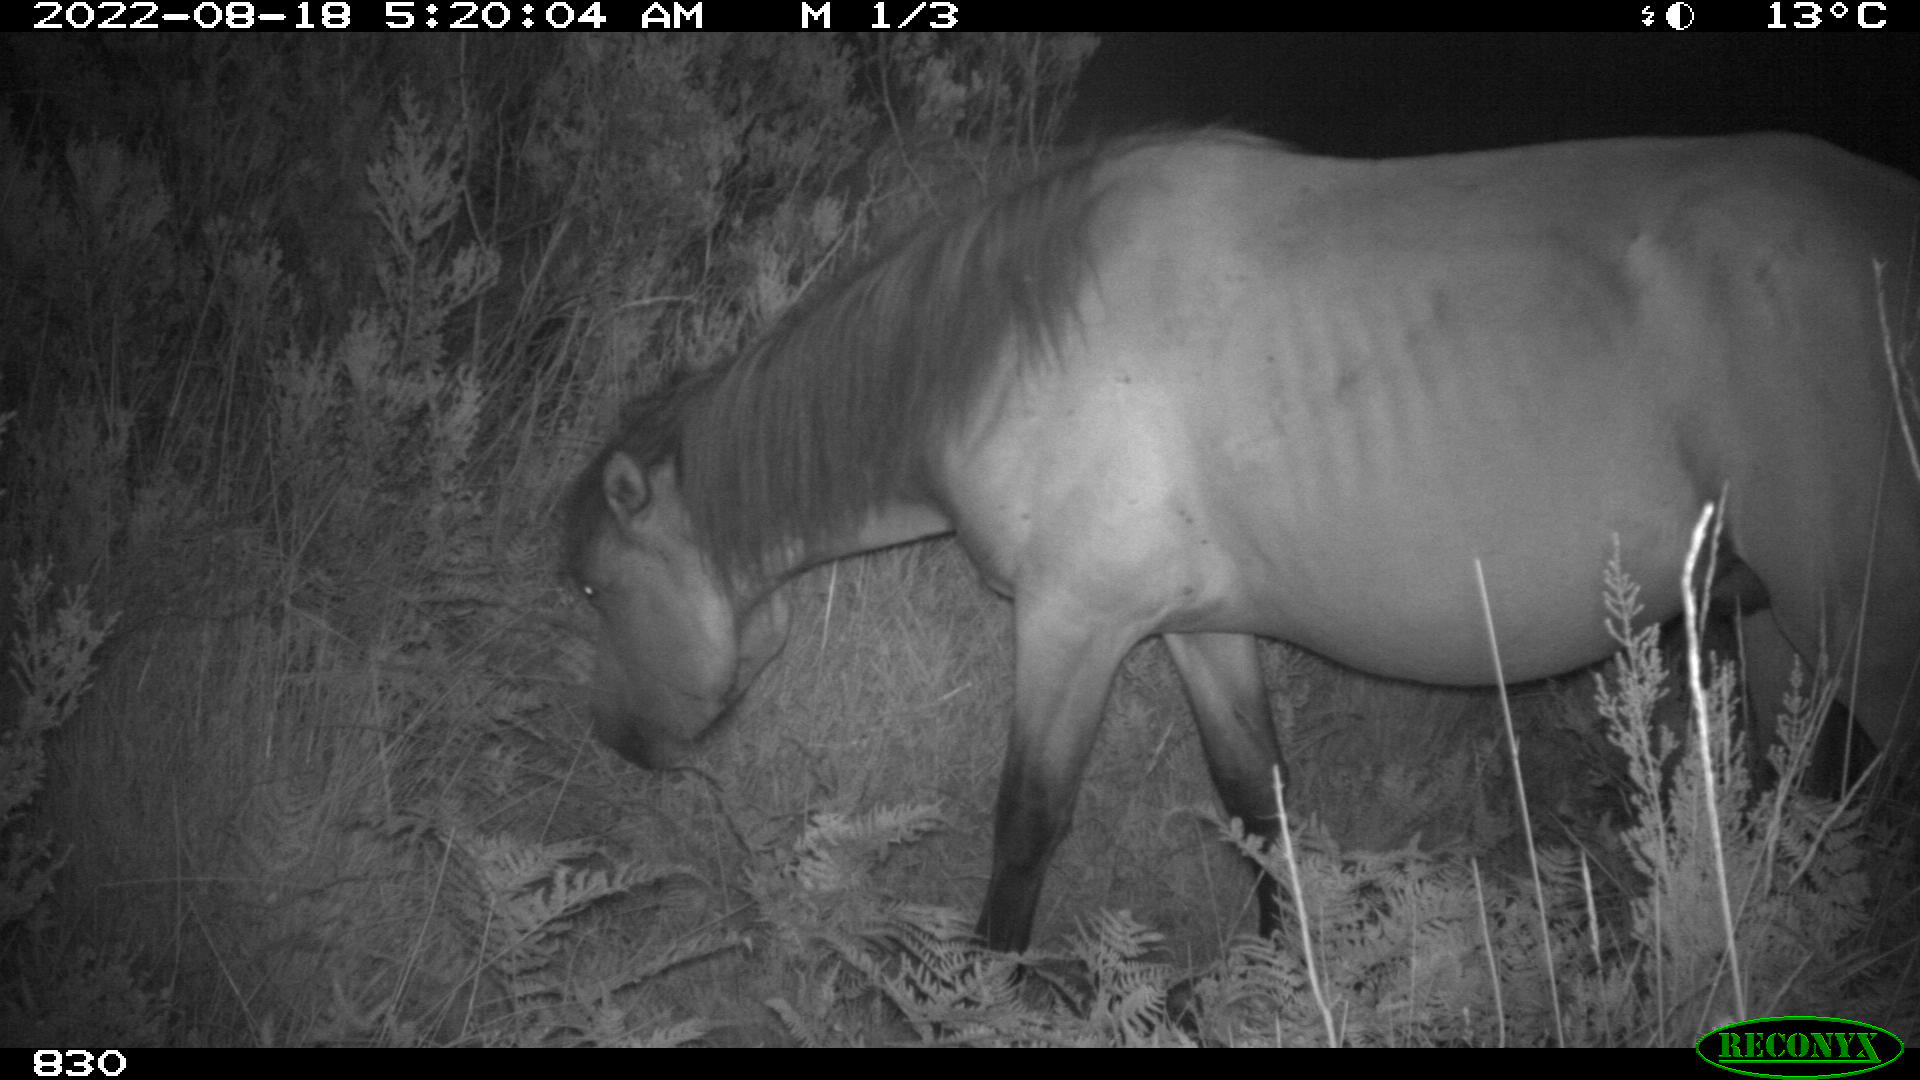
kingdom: Animalia
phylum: Chordata
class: Mammalia
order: Perissodactyla
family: Equidae
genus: Equus
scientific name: Equus caballus
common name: Horse
